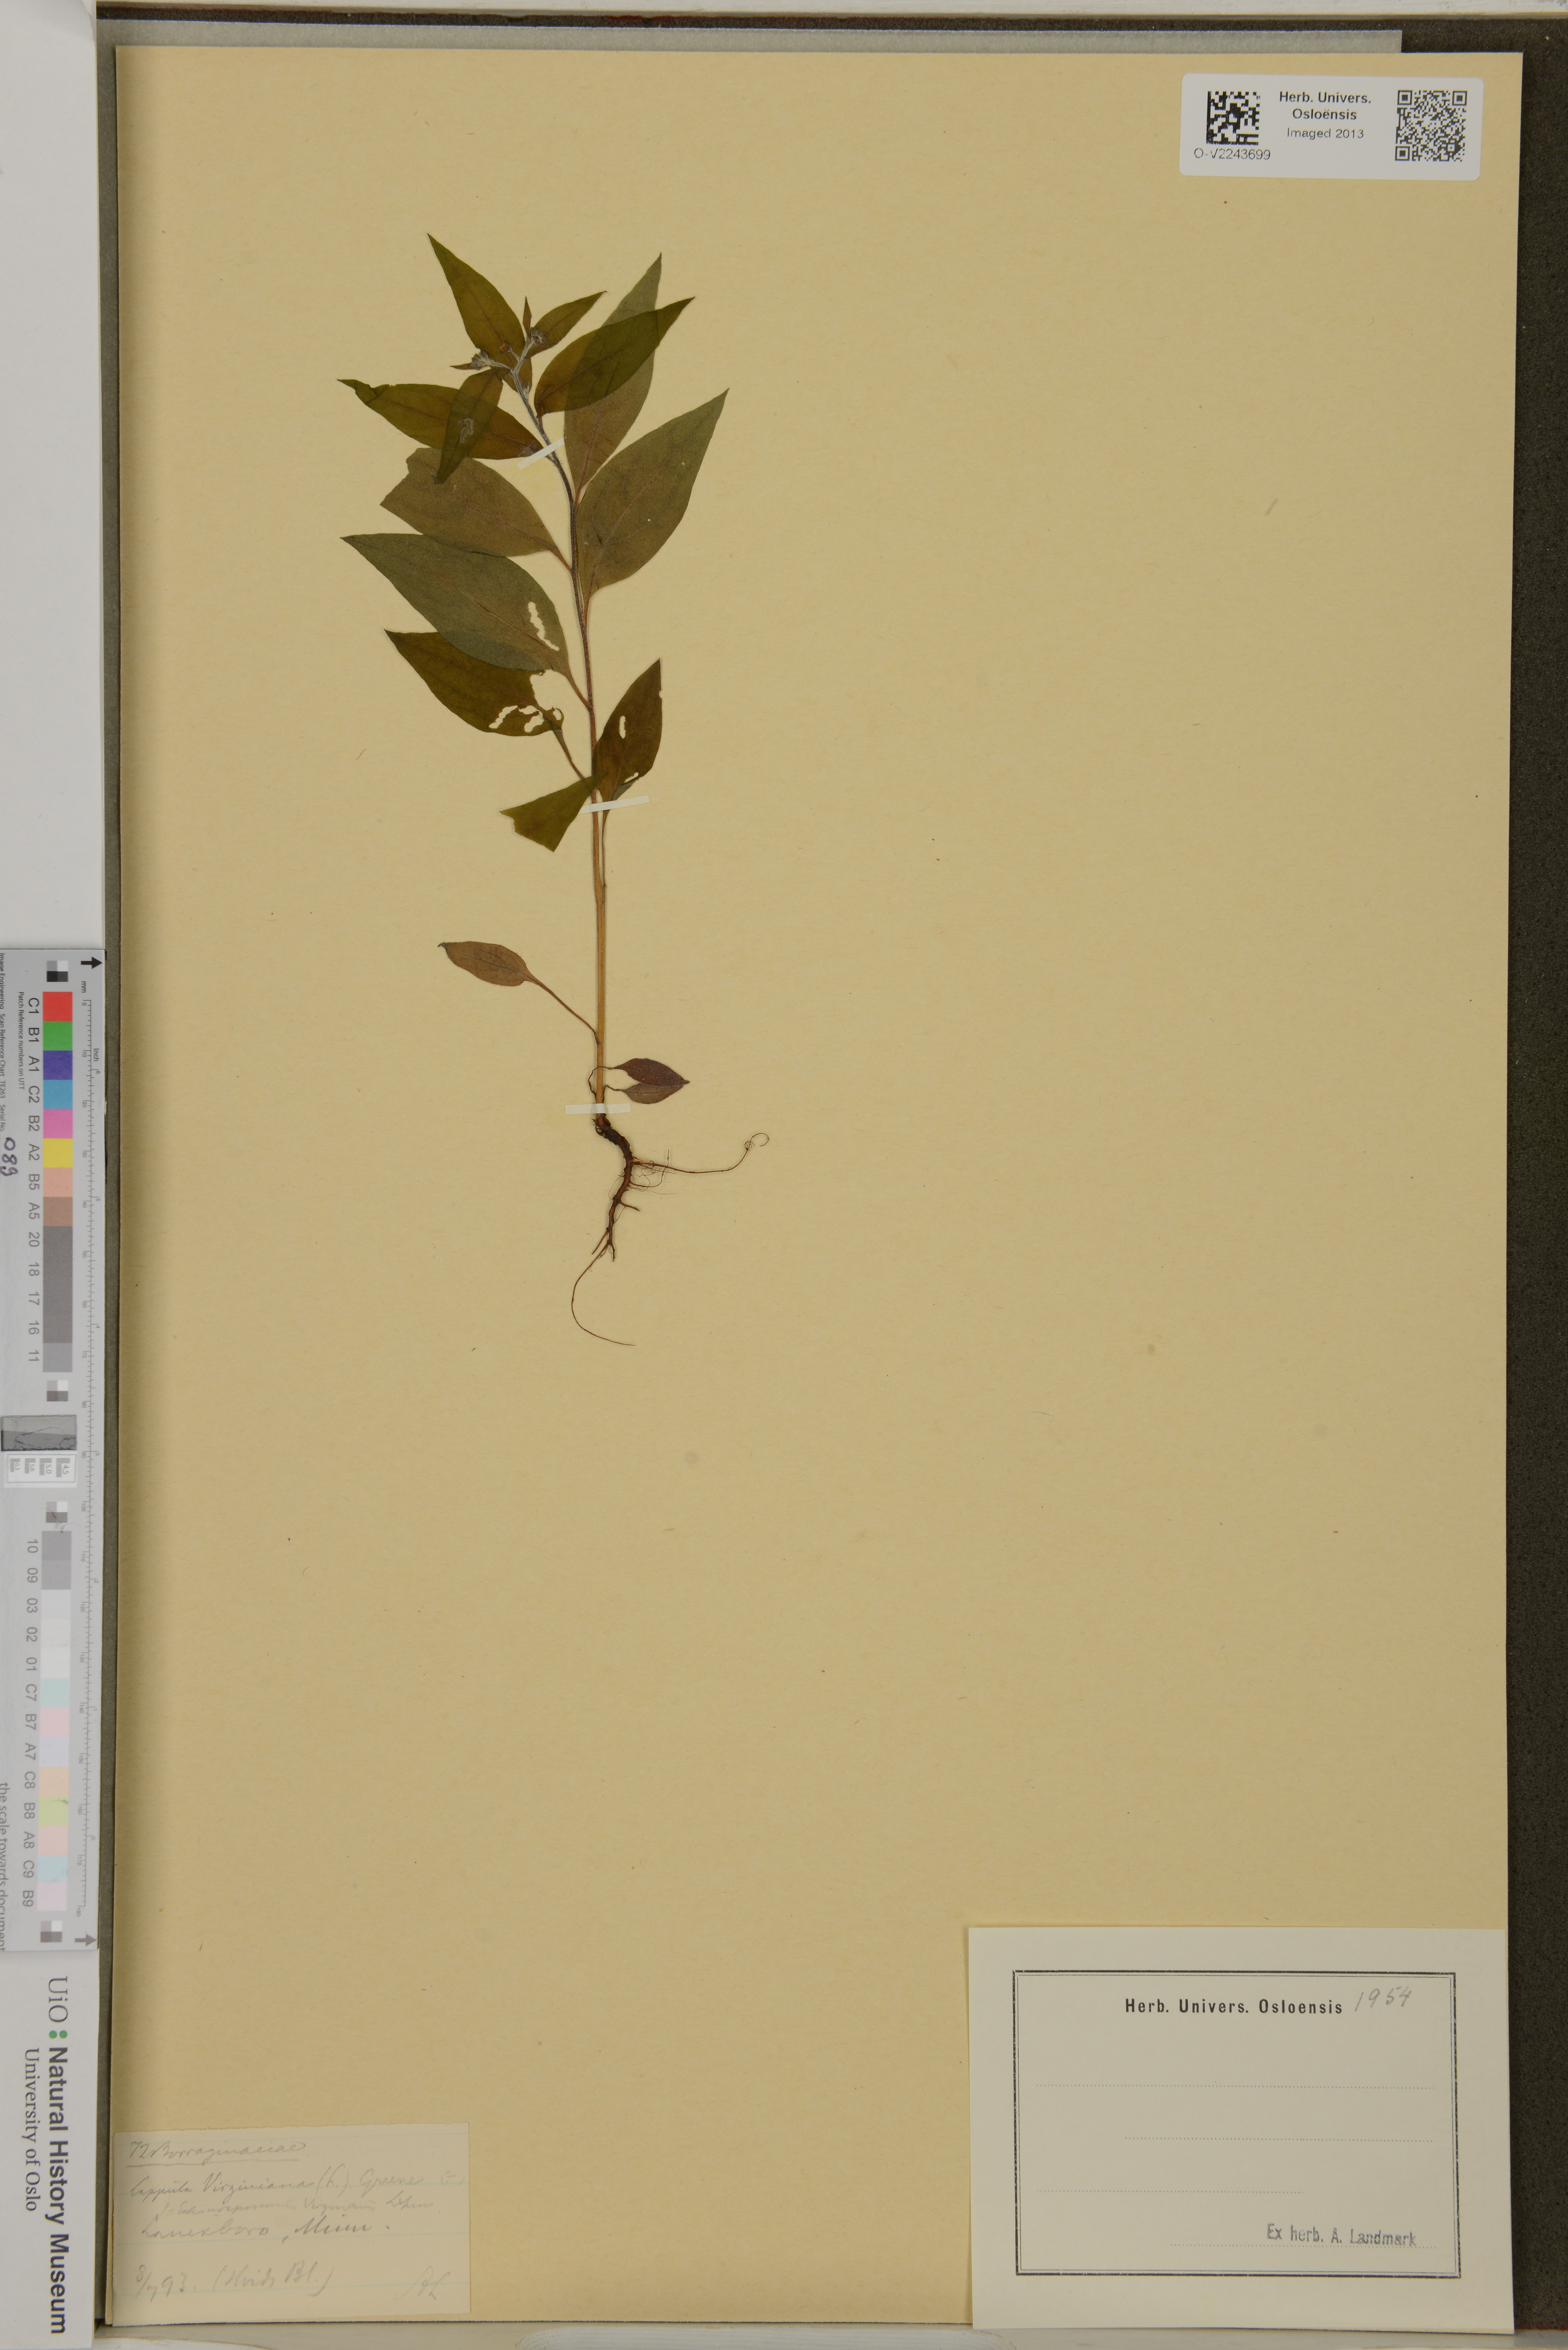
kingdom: Plantae
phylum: Tracheophyta
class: Magnoliopsida
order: Boraginales
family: Boraginaceae
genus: Hackelia
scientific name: Hackelia virginiana
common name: Beggar's-lice
